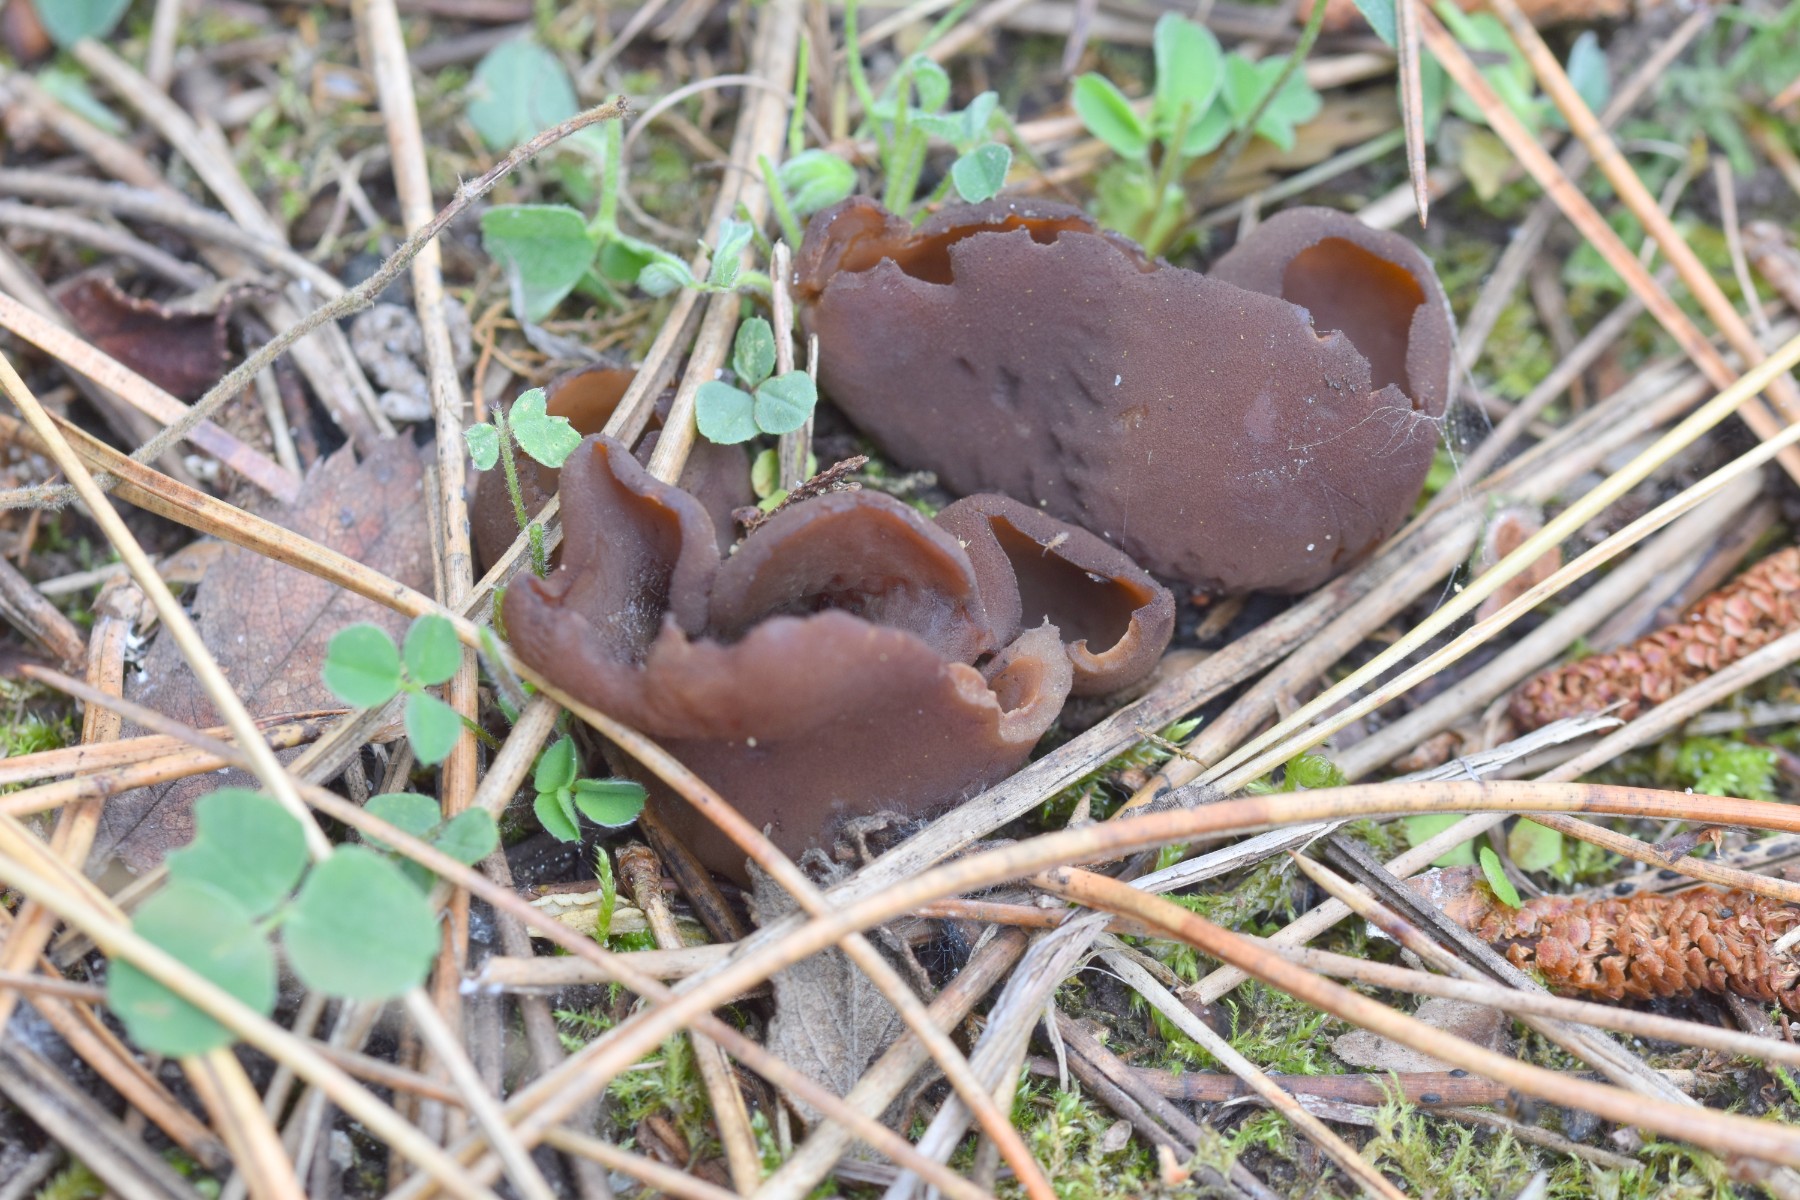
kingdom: Fungi
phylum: Ascomycota
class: Pezizomycetes
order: Pezizales
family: Otideaceae
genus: Otidea
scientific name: Otidea bufonia
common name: brun ørebæger
